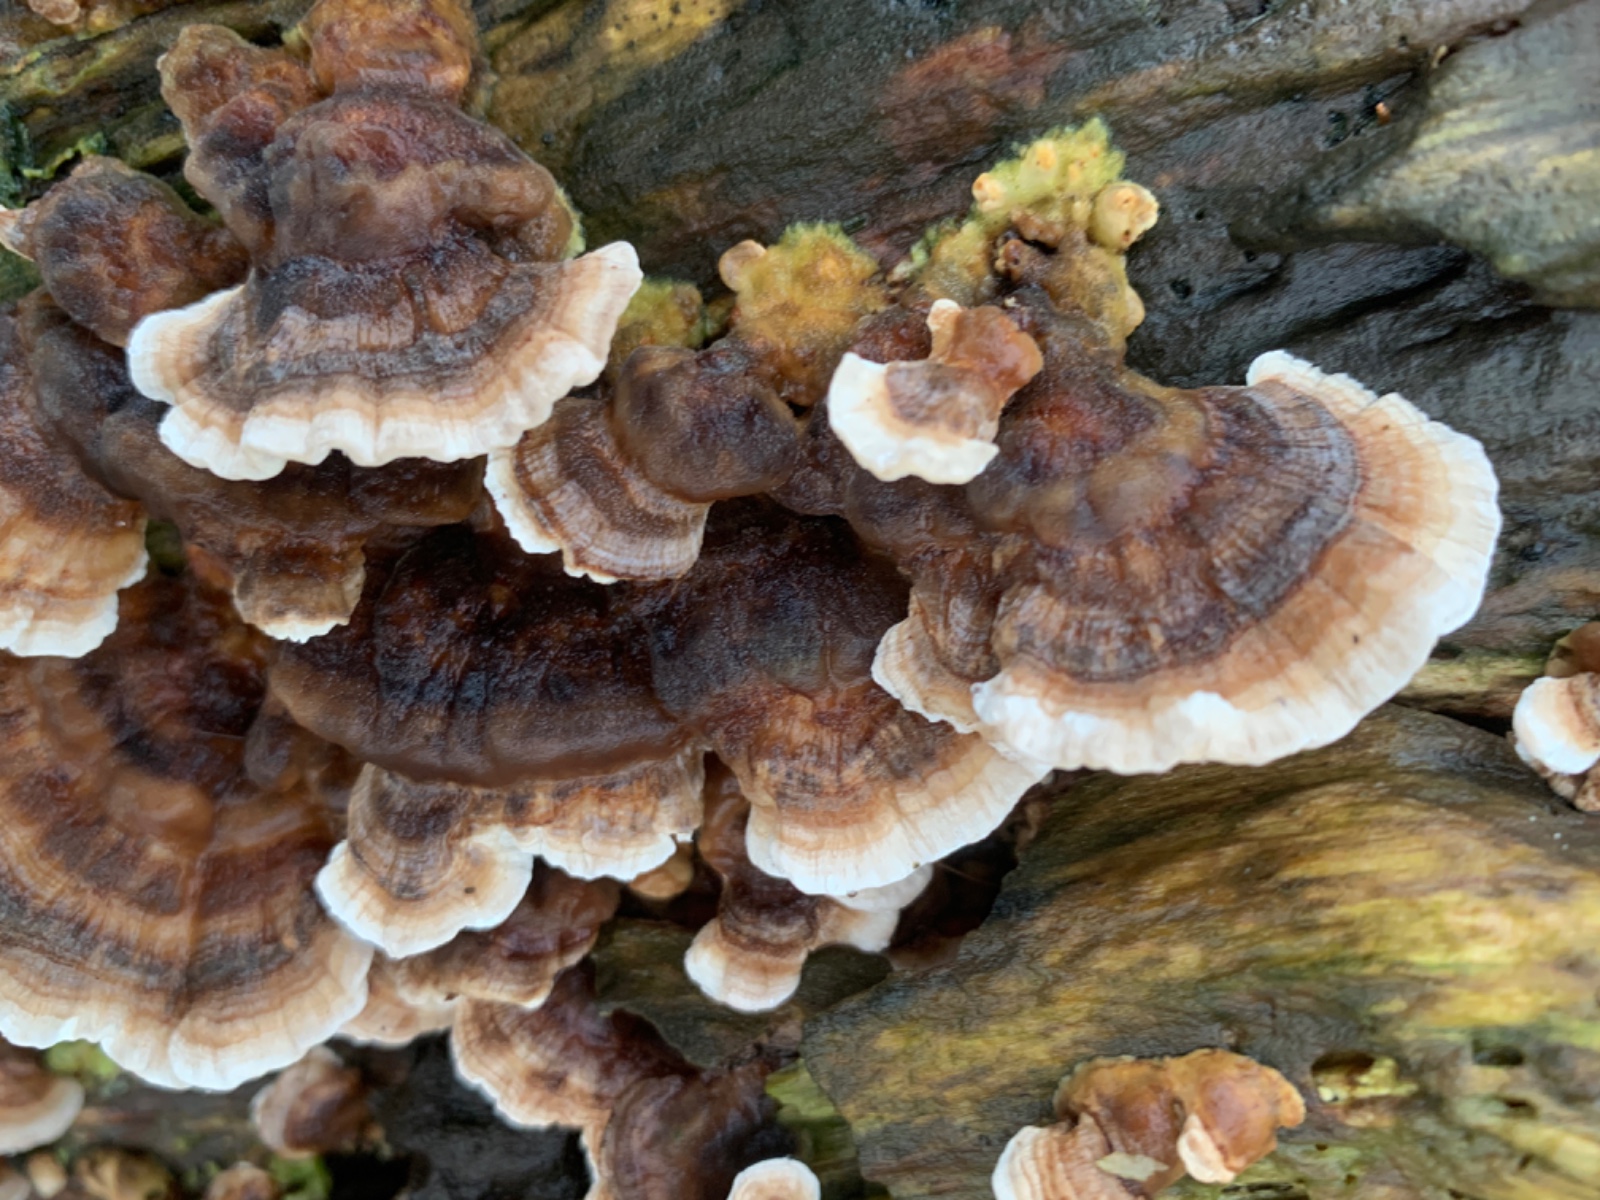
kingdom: Fungi
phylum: Basidiomycota
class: Agaricomycetes
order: Polyporales
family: Polyporaceae
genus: Trametes
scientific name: Trametes versicolor
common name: broget læderporesvamp
